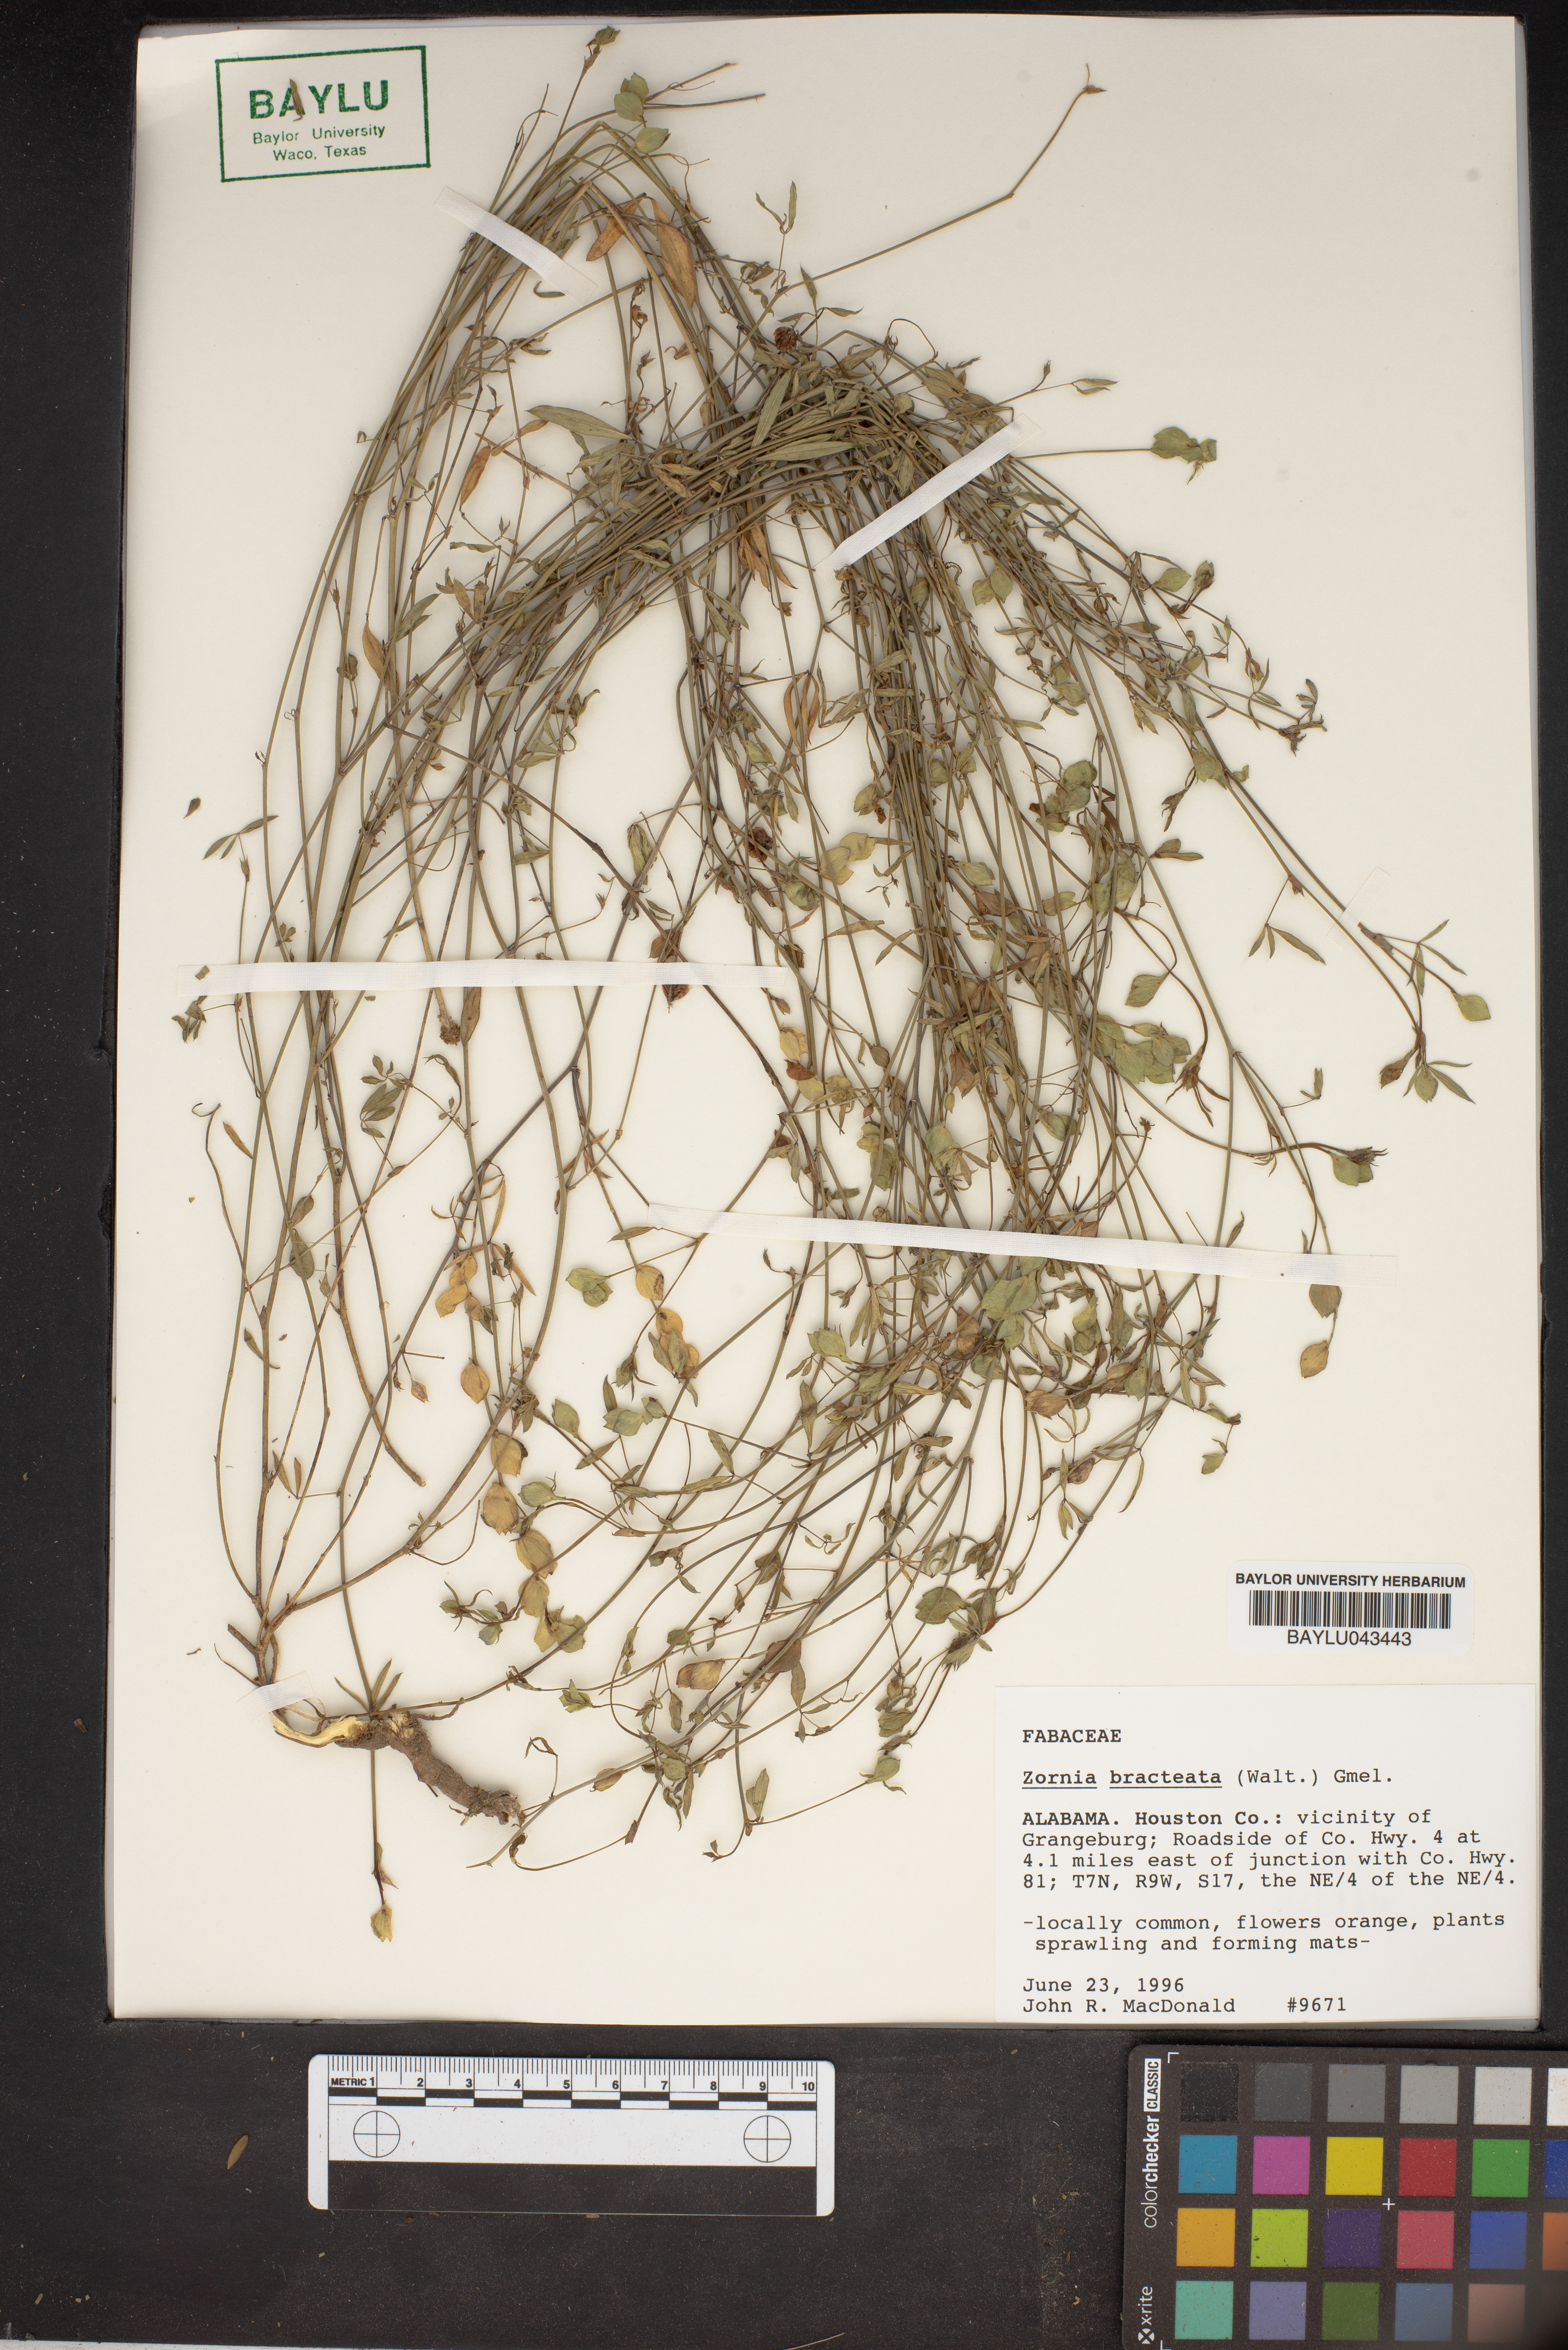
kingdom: Plantae
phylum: Tracheophyta
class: Magnoliopsida
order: Fabales
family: Fabaceae
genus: Zornia
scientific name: Zornia bracteata
